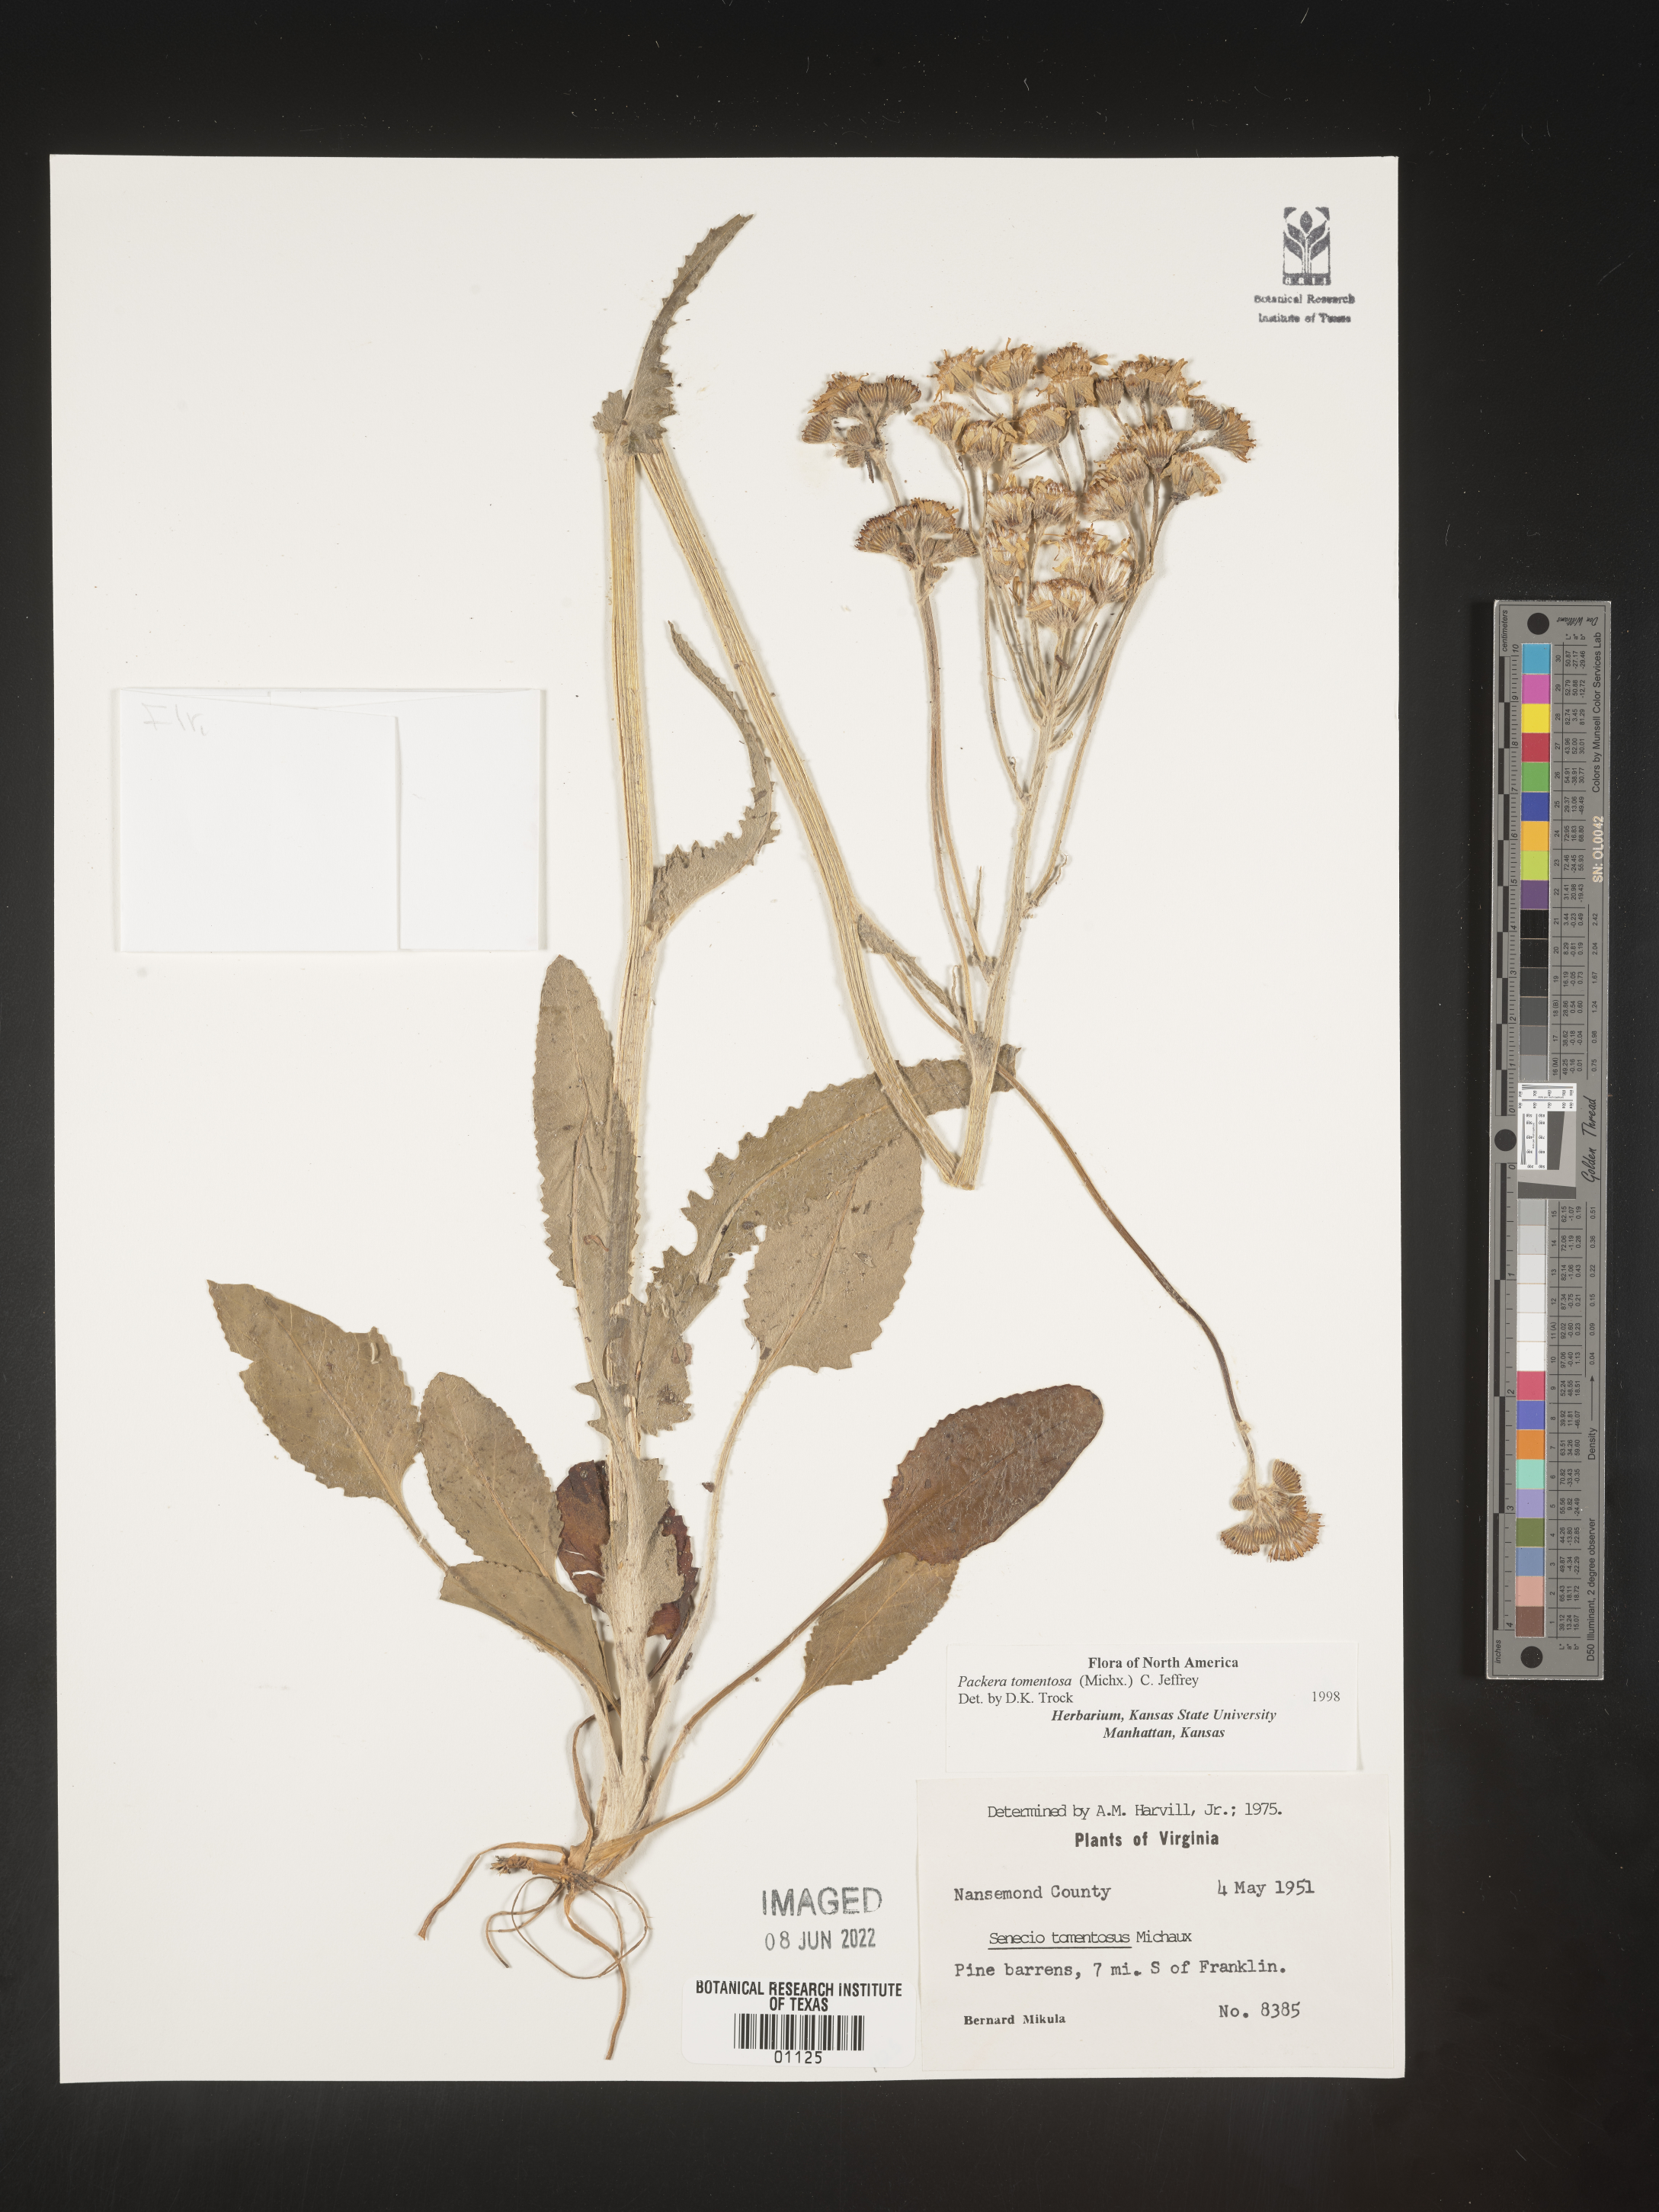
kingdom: Plantae
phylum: Tracheophyta
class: Magnoliopsida
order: Asterales
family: Asteraceae
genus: Packera
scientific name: Packera dubia
